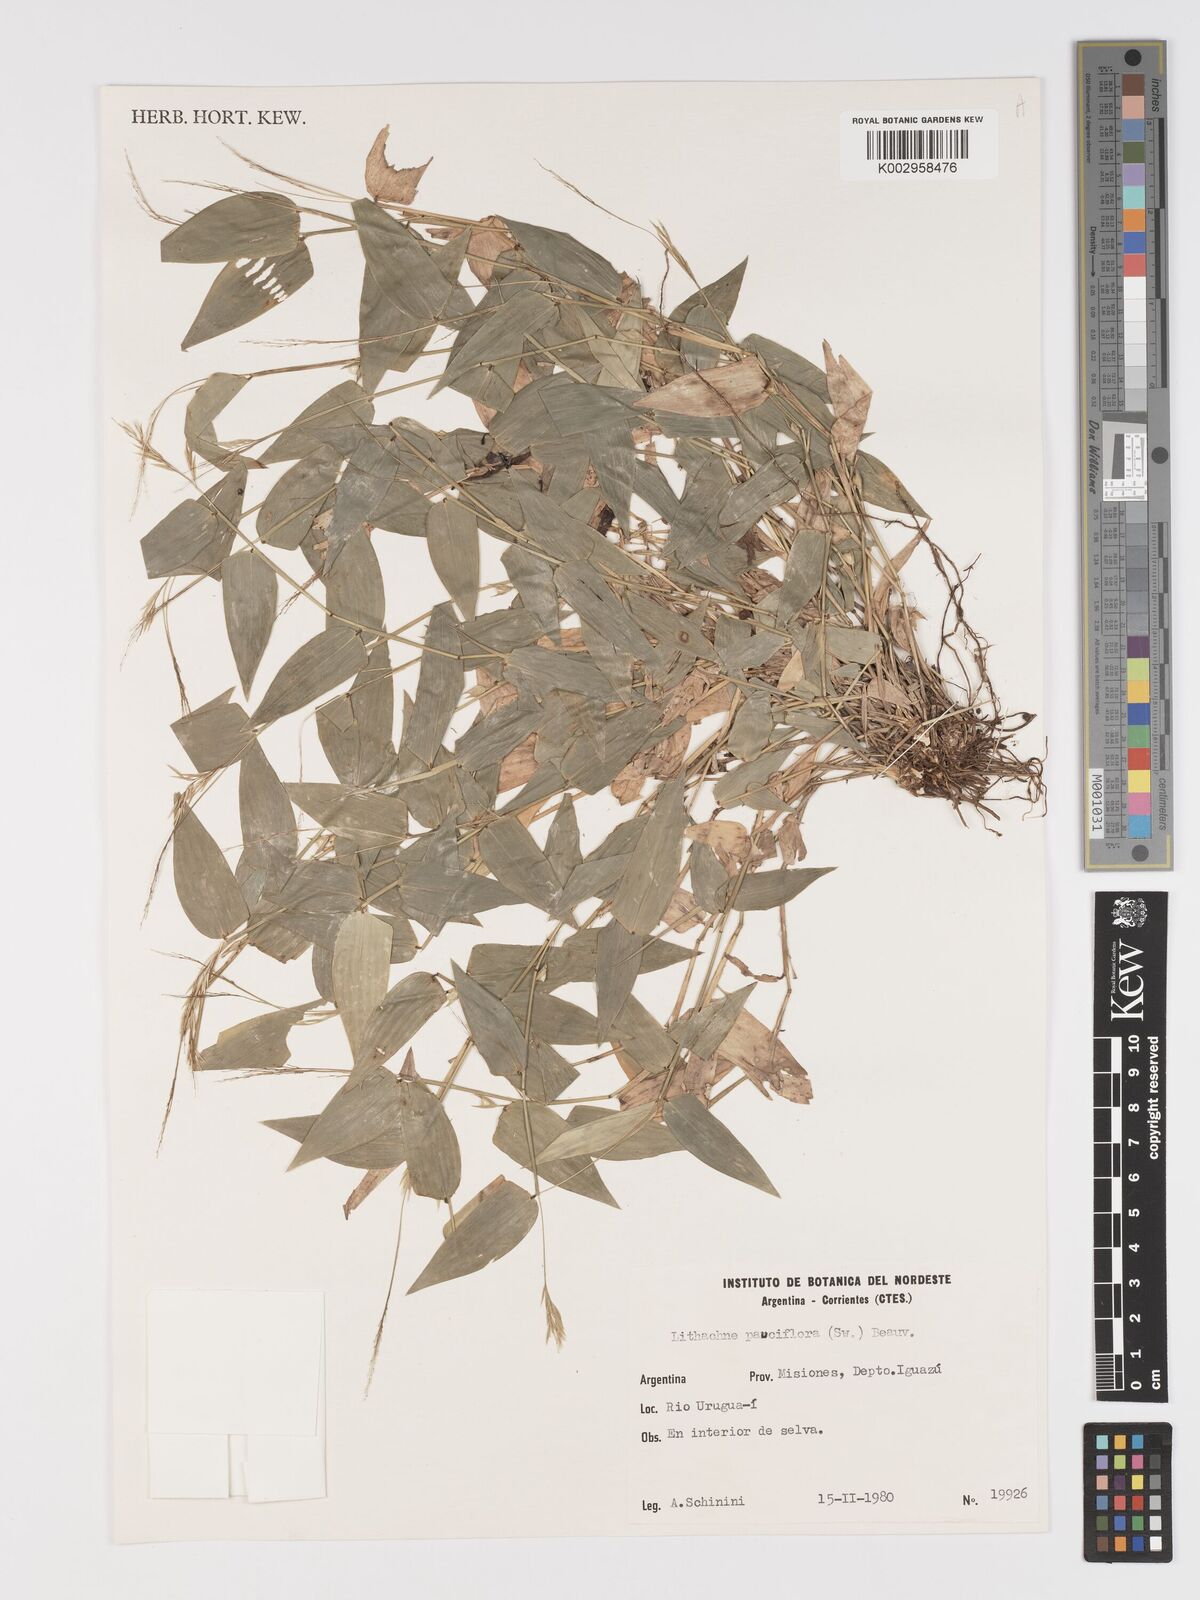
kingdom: Plantae
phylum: Tracheophyta
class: Liliopsida
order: Poales
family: Poaceae
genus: Lithachne
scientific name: Lithachne pauciflora
